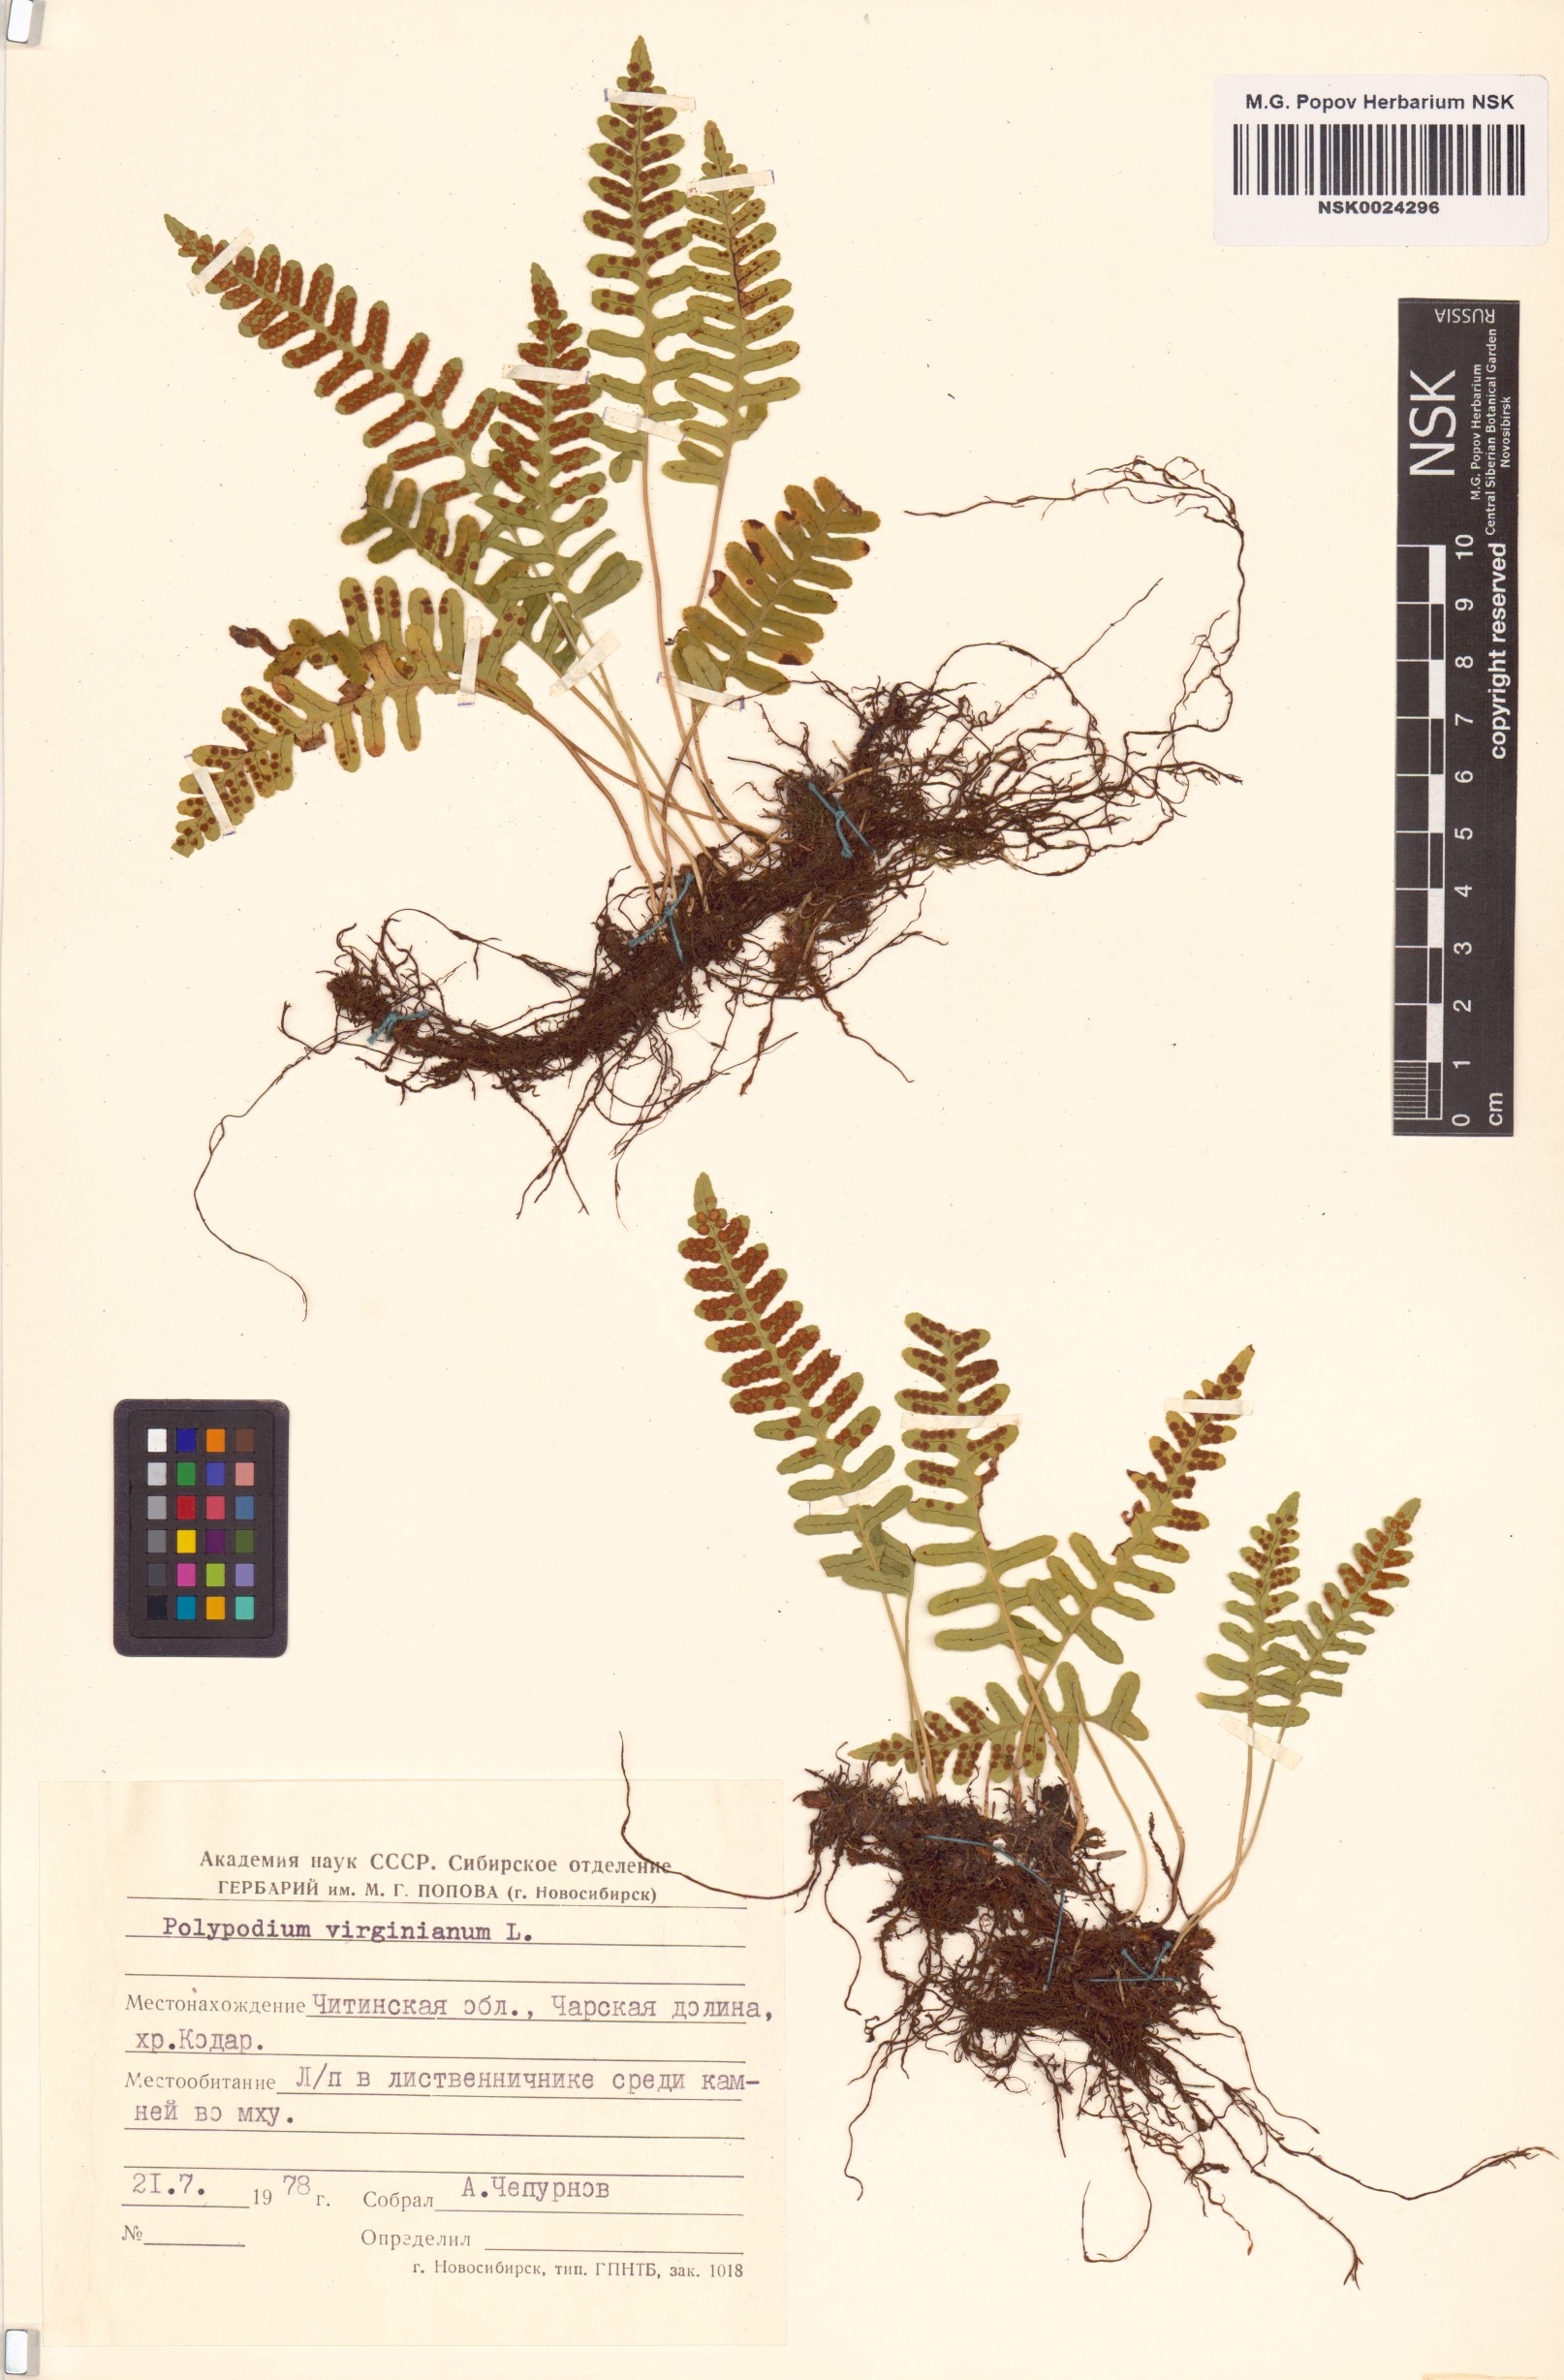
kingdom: Plantae
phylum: Tracheophyta
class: Polypodiopsida
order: Polypodiales
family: Polypodiaceae
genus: Polypodium
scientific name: Polypodium virginianum
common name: American wall fern
